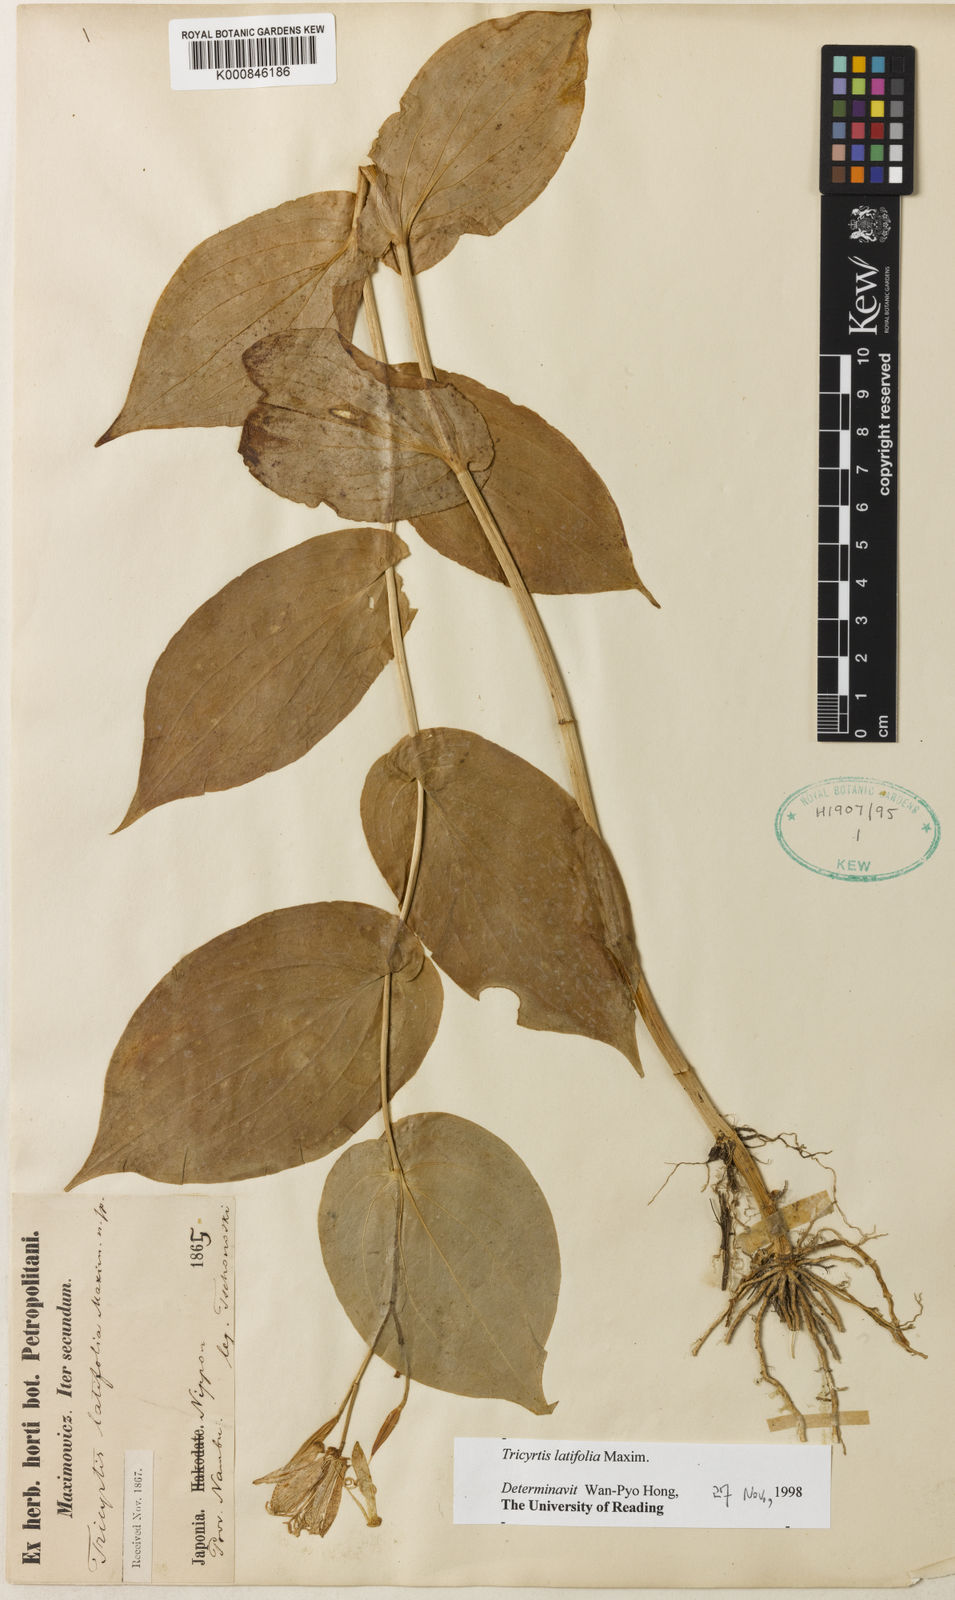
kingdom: Plantae
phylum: Tracheophyta
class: Liliopsida
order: Liliales
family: Liliaceae
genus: Tricyrtis
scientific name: Tricyrtis latifolia
